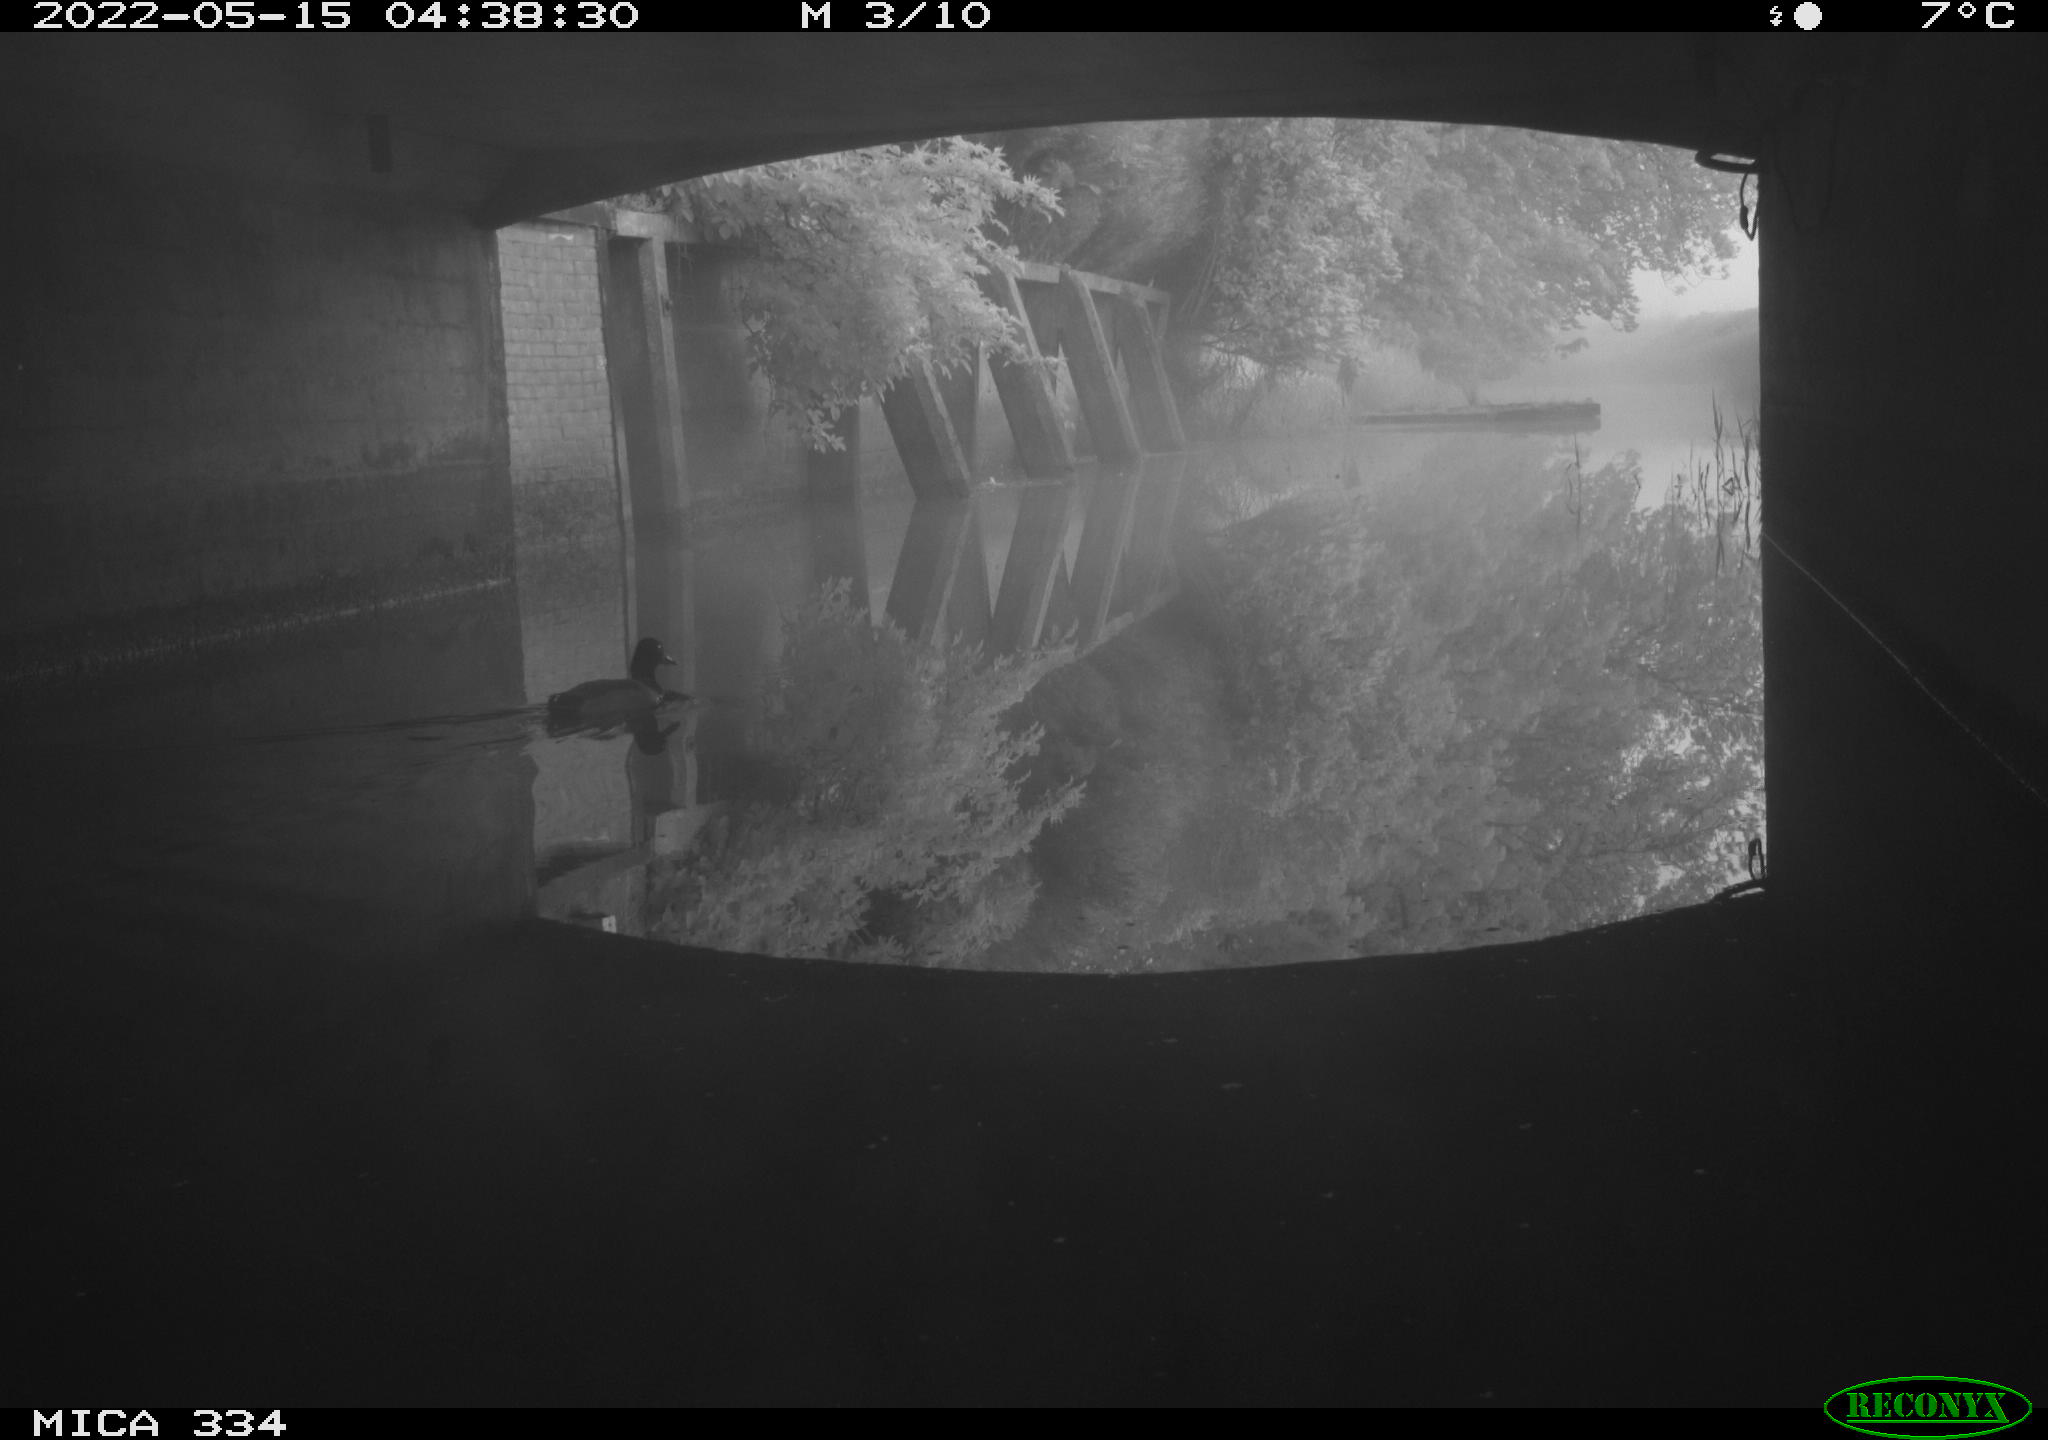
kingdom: Animalia
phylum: Chordata
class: Aves
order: Anseriformes
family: Anatidae
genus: Anas
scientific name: Anas platyrhynchos
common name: Mallard
